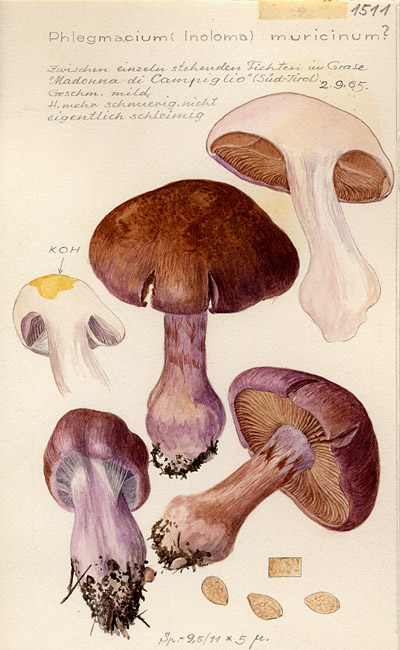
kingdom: Fungi
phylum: Basidiomycota
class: Agaricomycetes
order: Agaricales
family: Cortinariaceae
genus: Cortinarius
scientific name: Cortinarius muricinus
